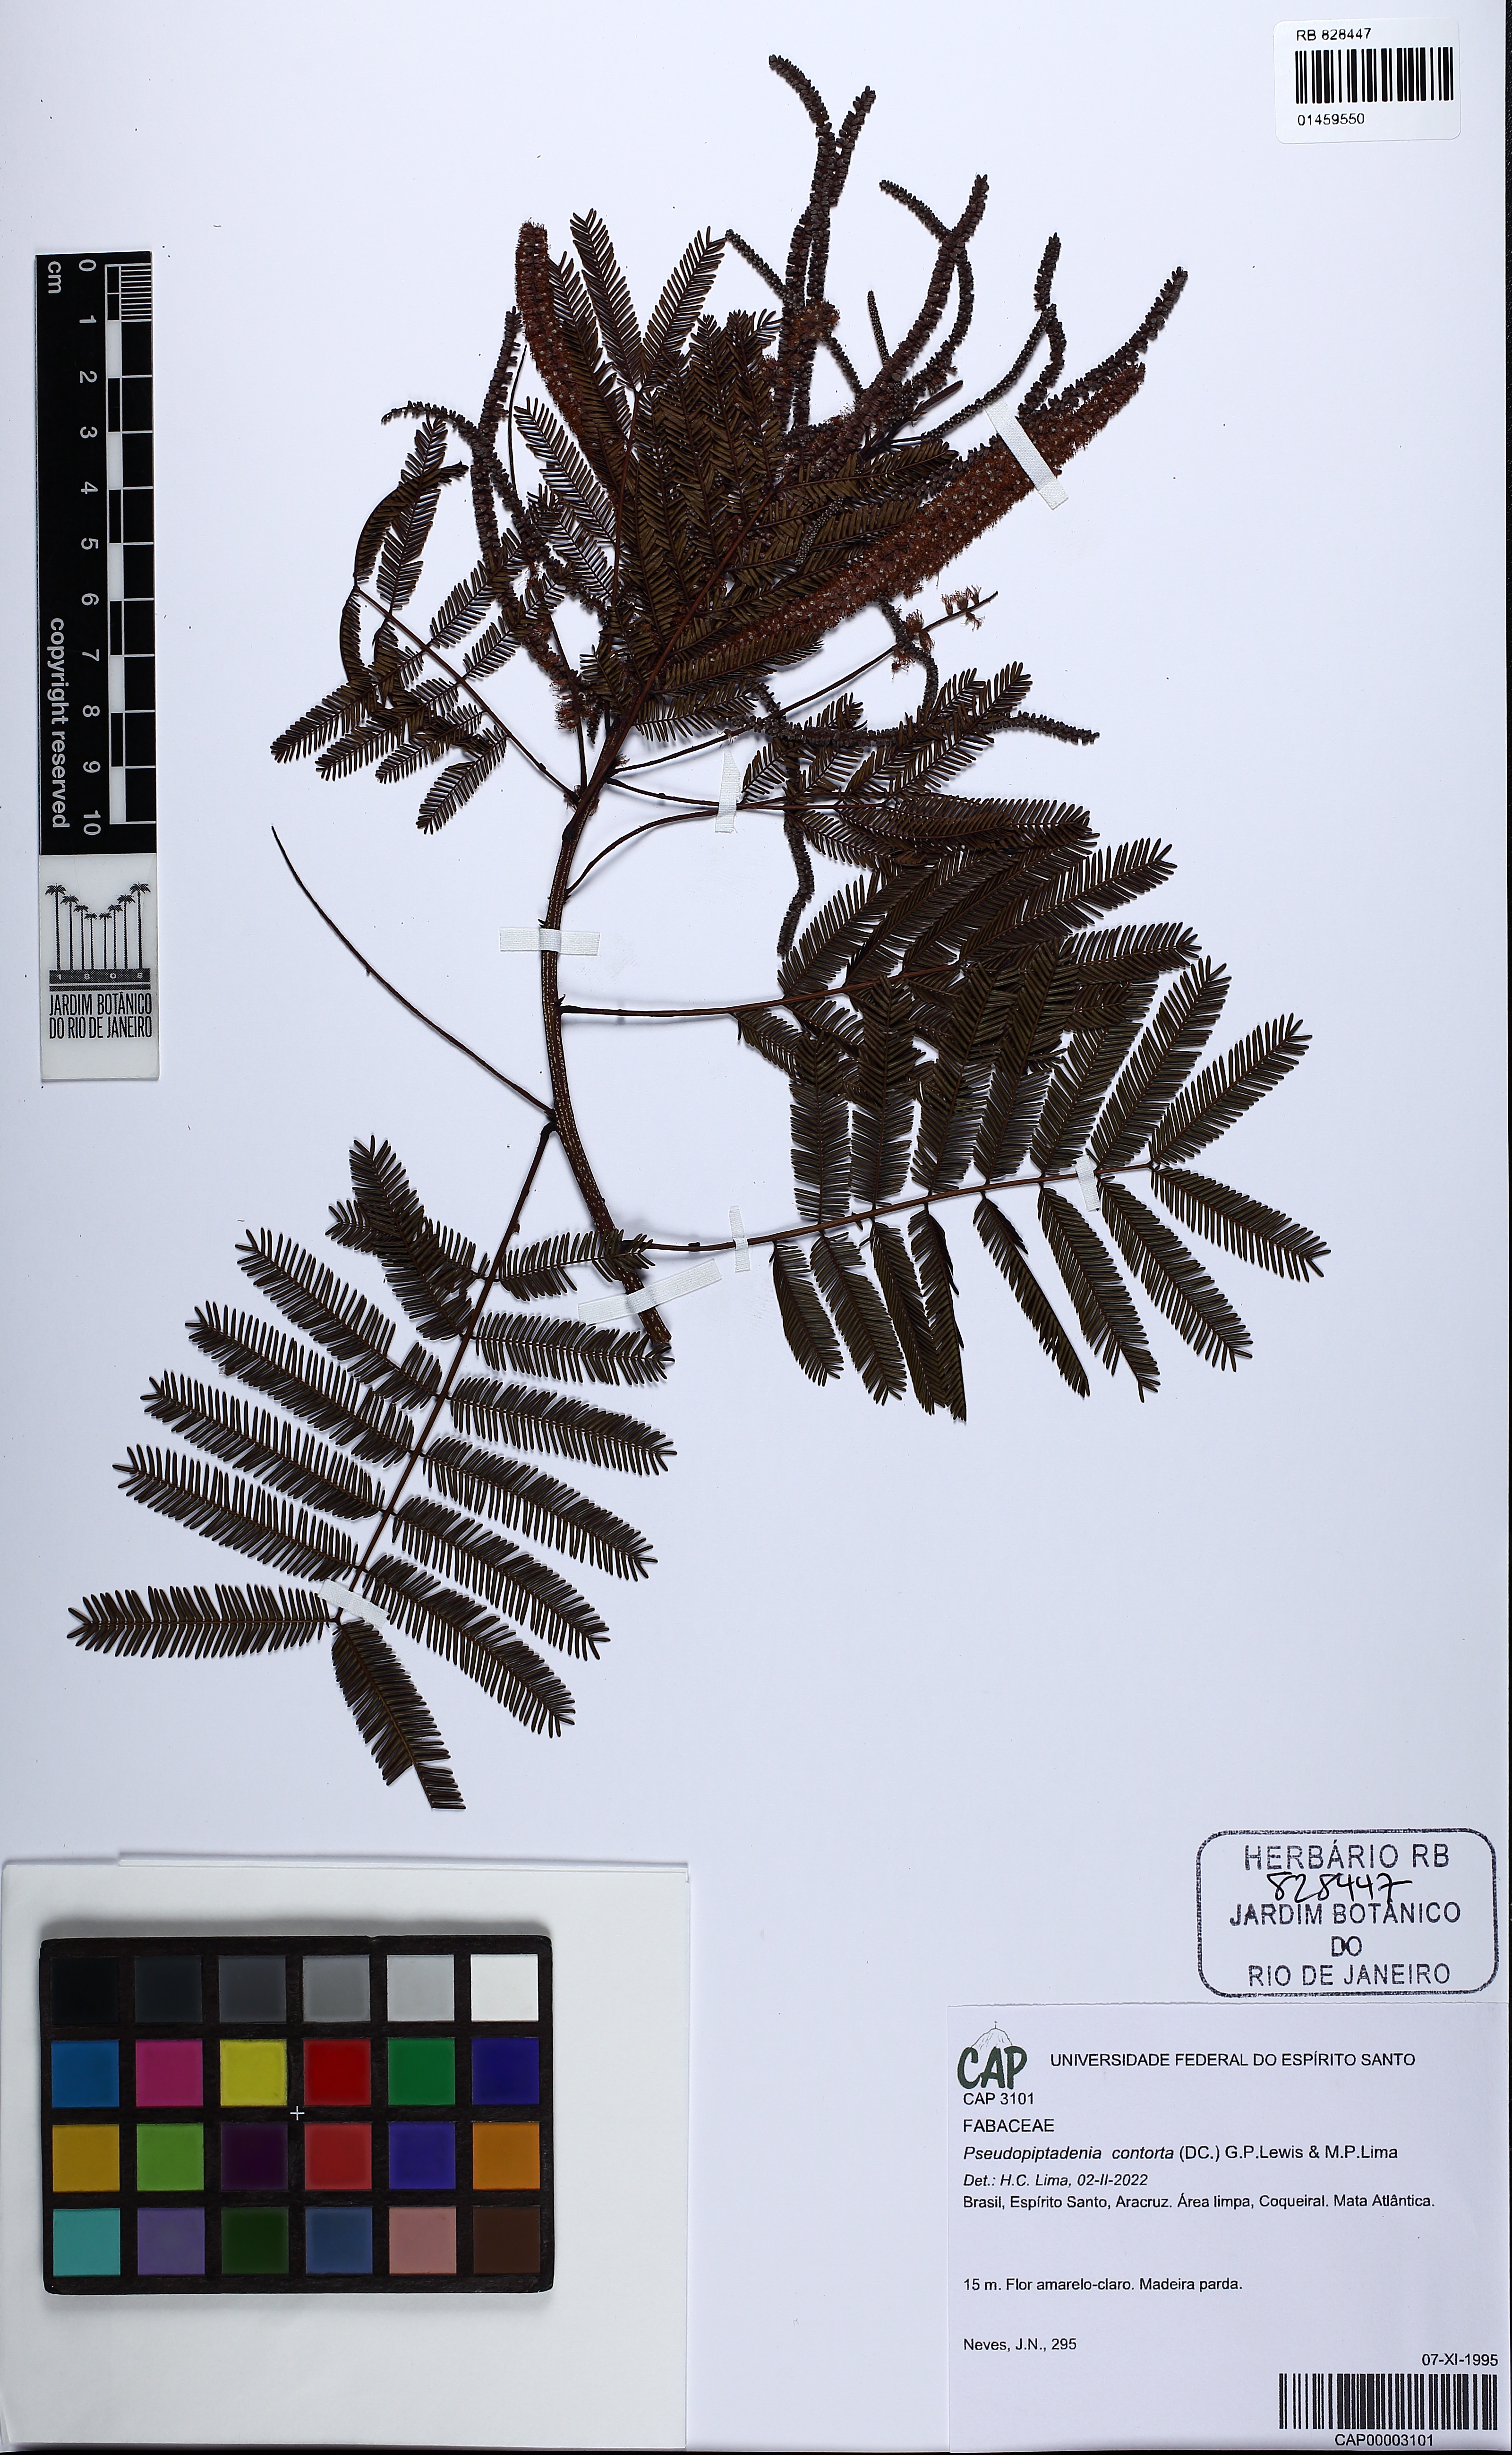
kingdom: Plantae
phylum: Tracheophyta
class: Magnoliopsida
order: Fabales
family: Fabaceae
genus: Pseudopiptadenia
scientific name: Pseudopiptadenia contorta
